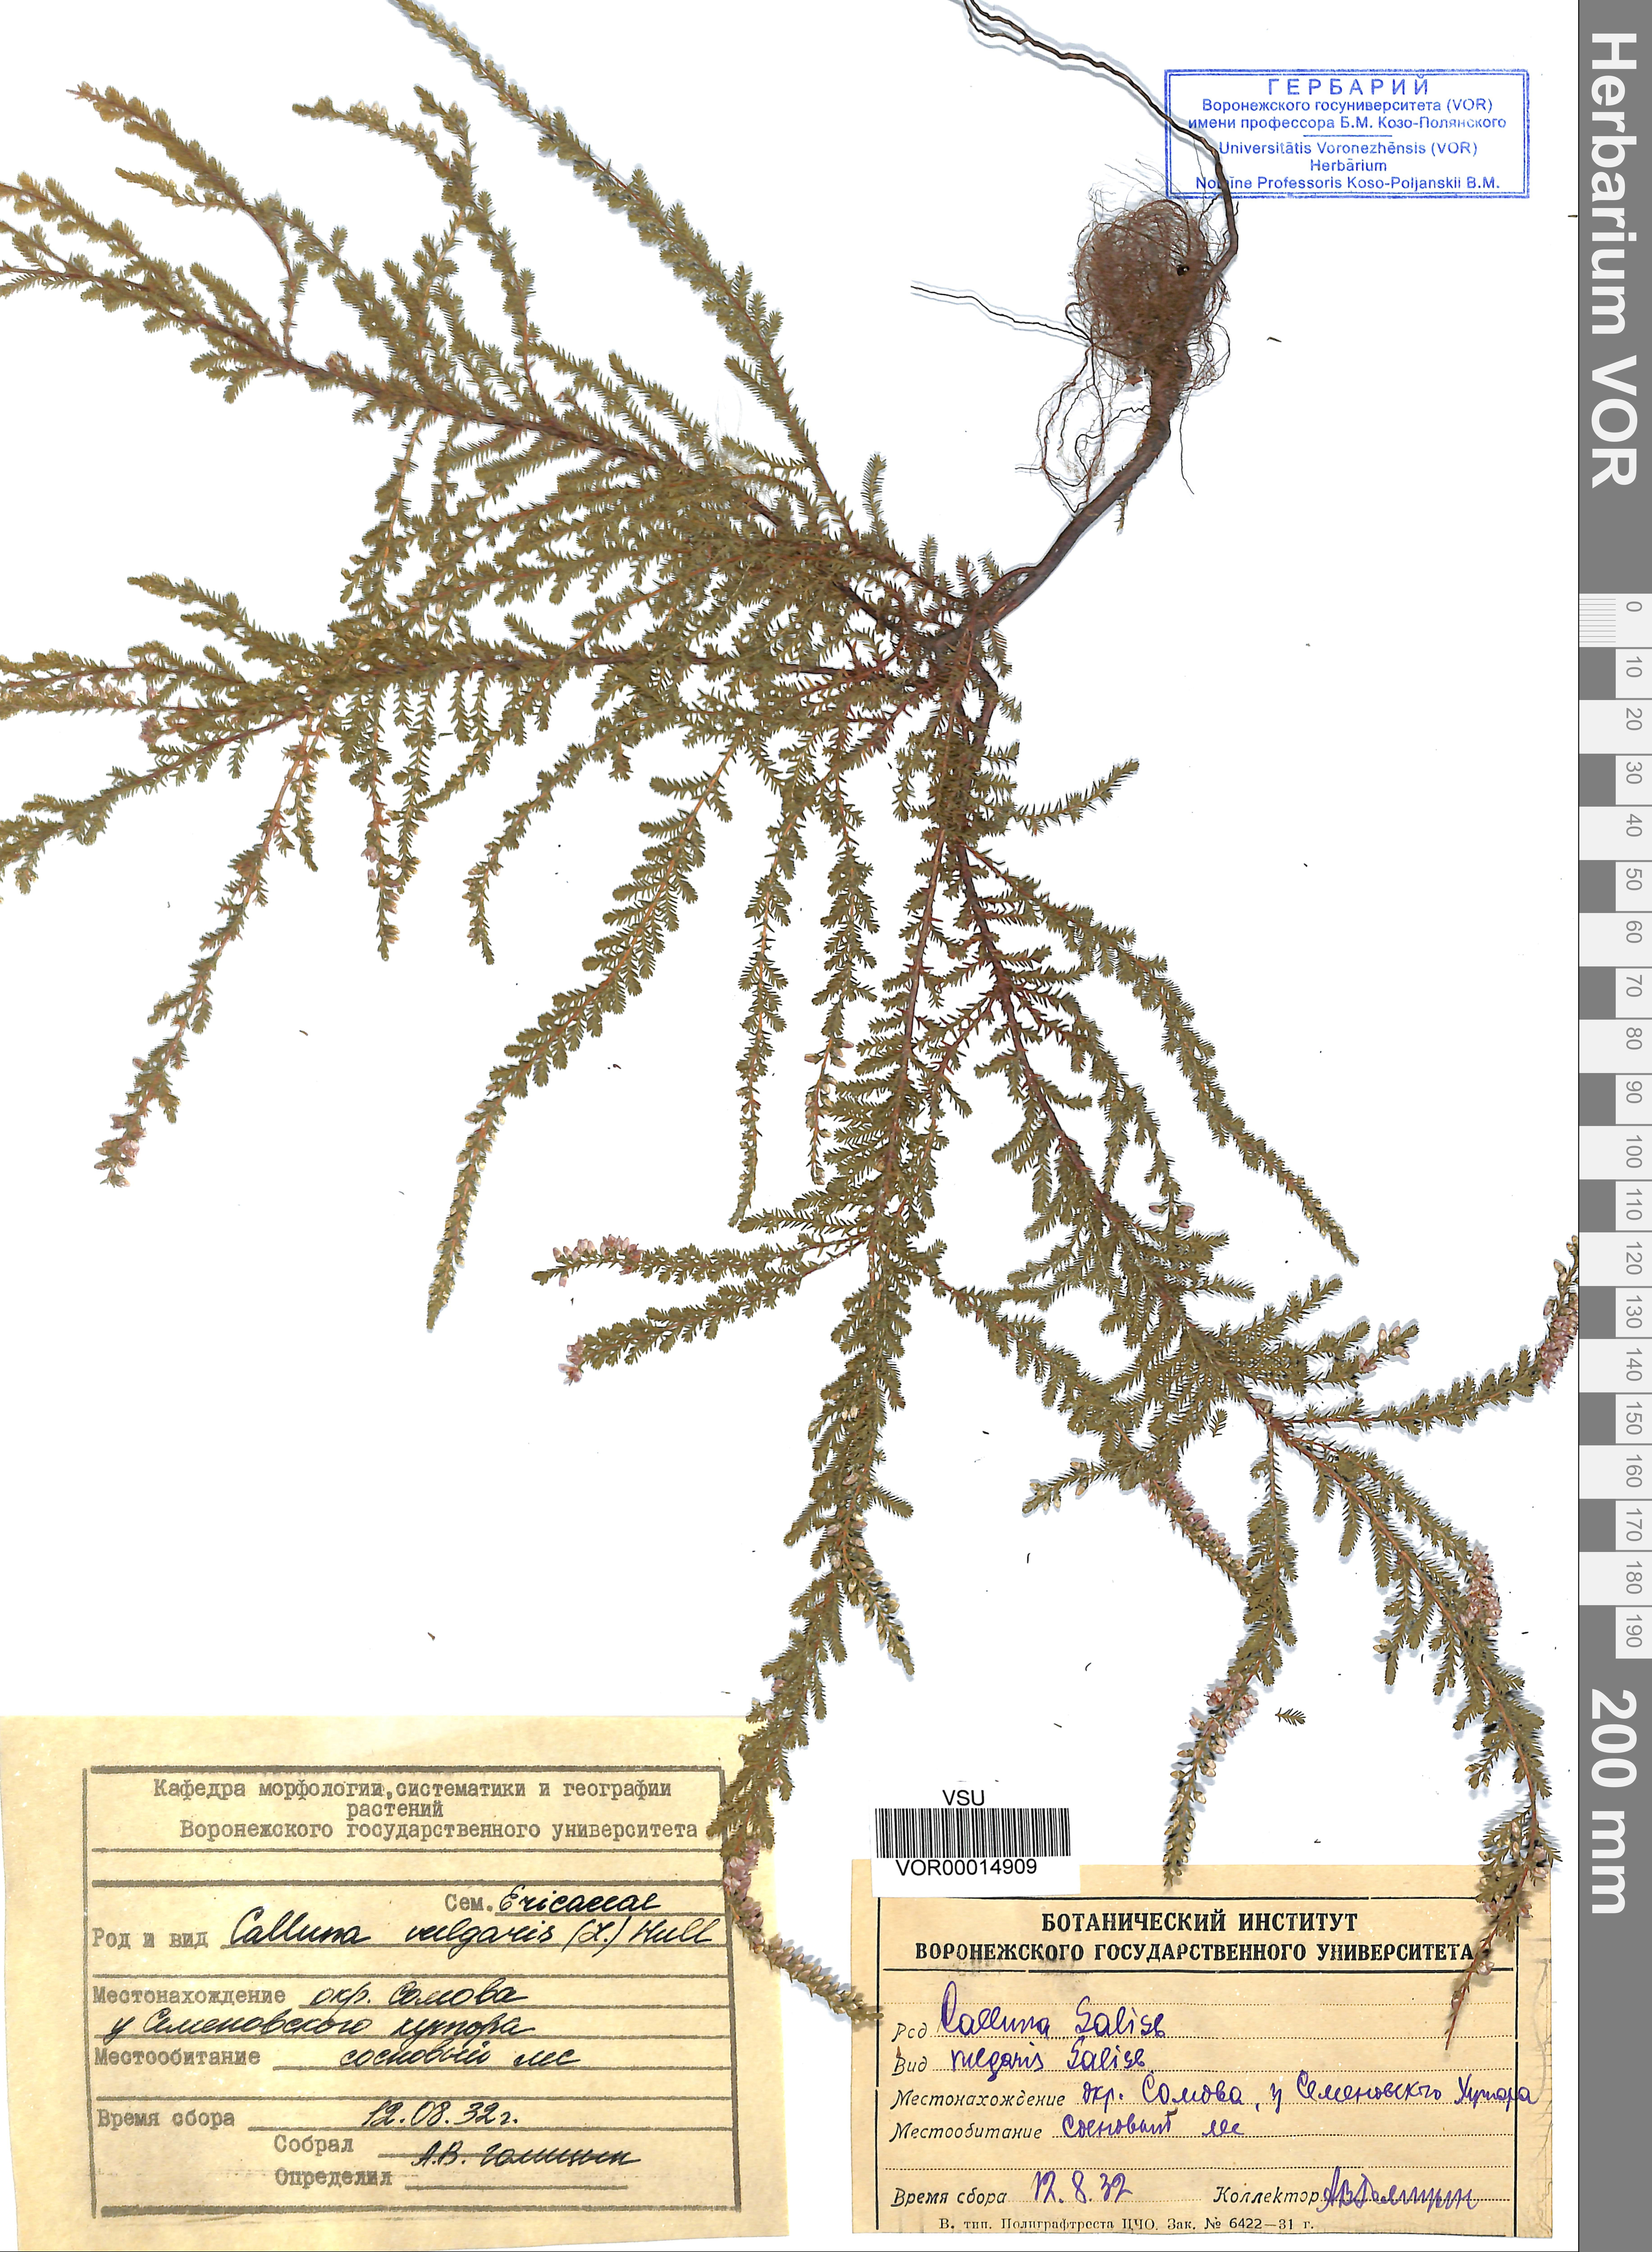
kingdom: Plantae
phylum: Tracheophyta
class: Magnoliopsida
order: Ericales
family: Ericaceae
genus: Calluna
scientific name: Calluna vulgaris
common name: Heather
